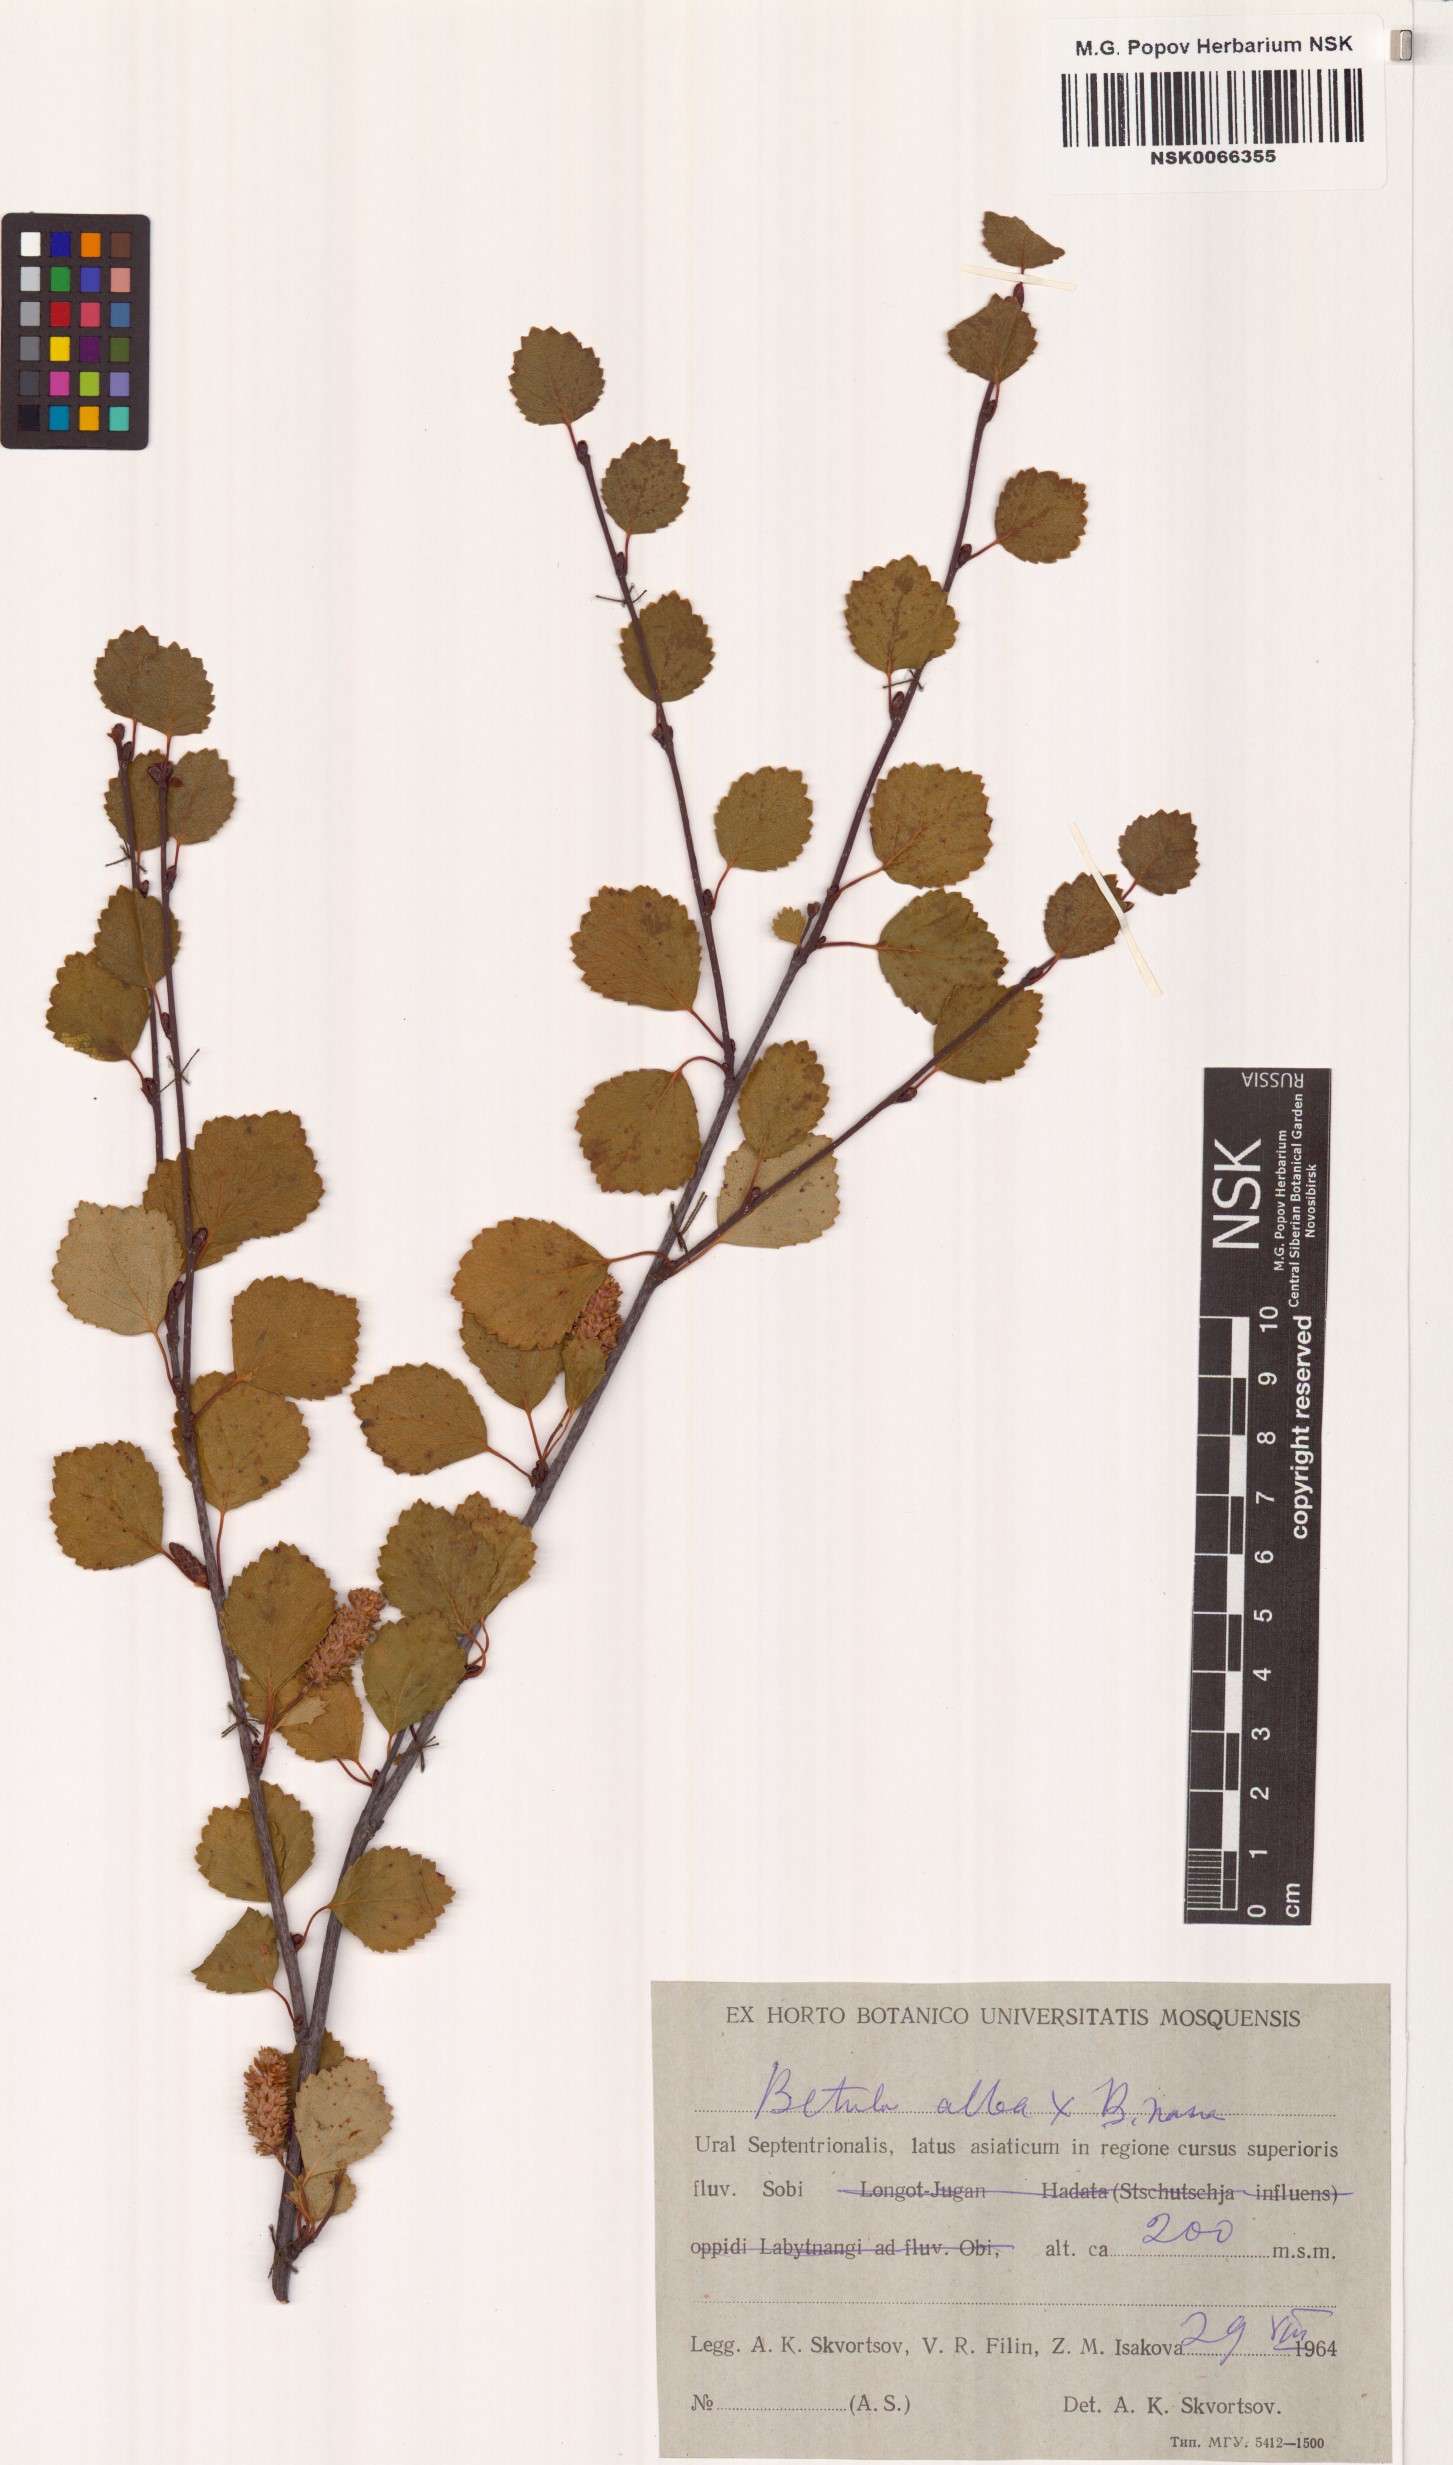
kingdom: Plantae
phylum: Tracheophyta
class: Magnoliopsida
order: Fagales
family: Betulaceae
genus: Betula
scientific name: Betula pubescens
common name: Downy birch
